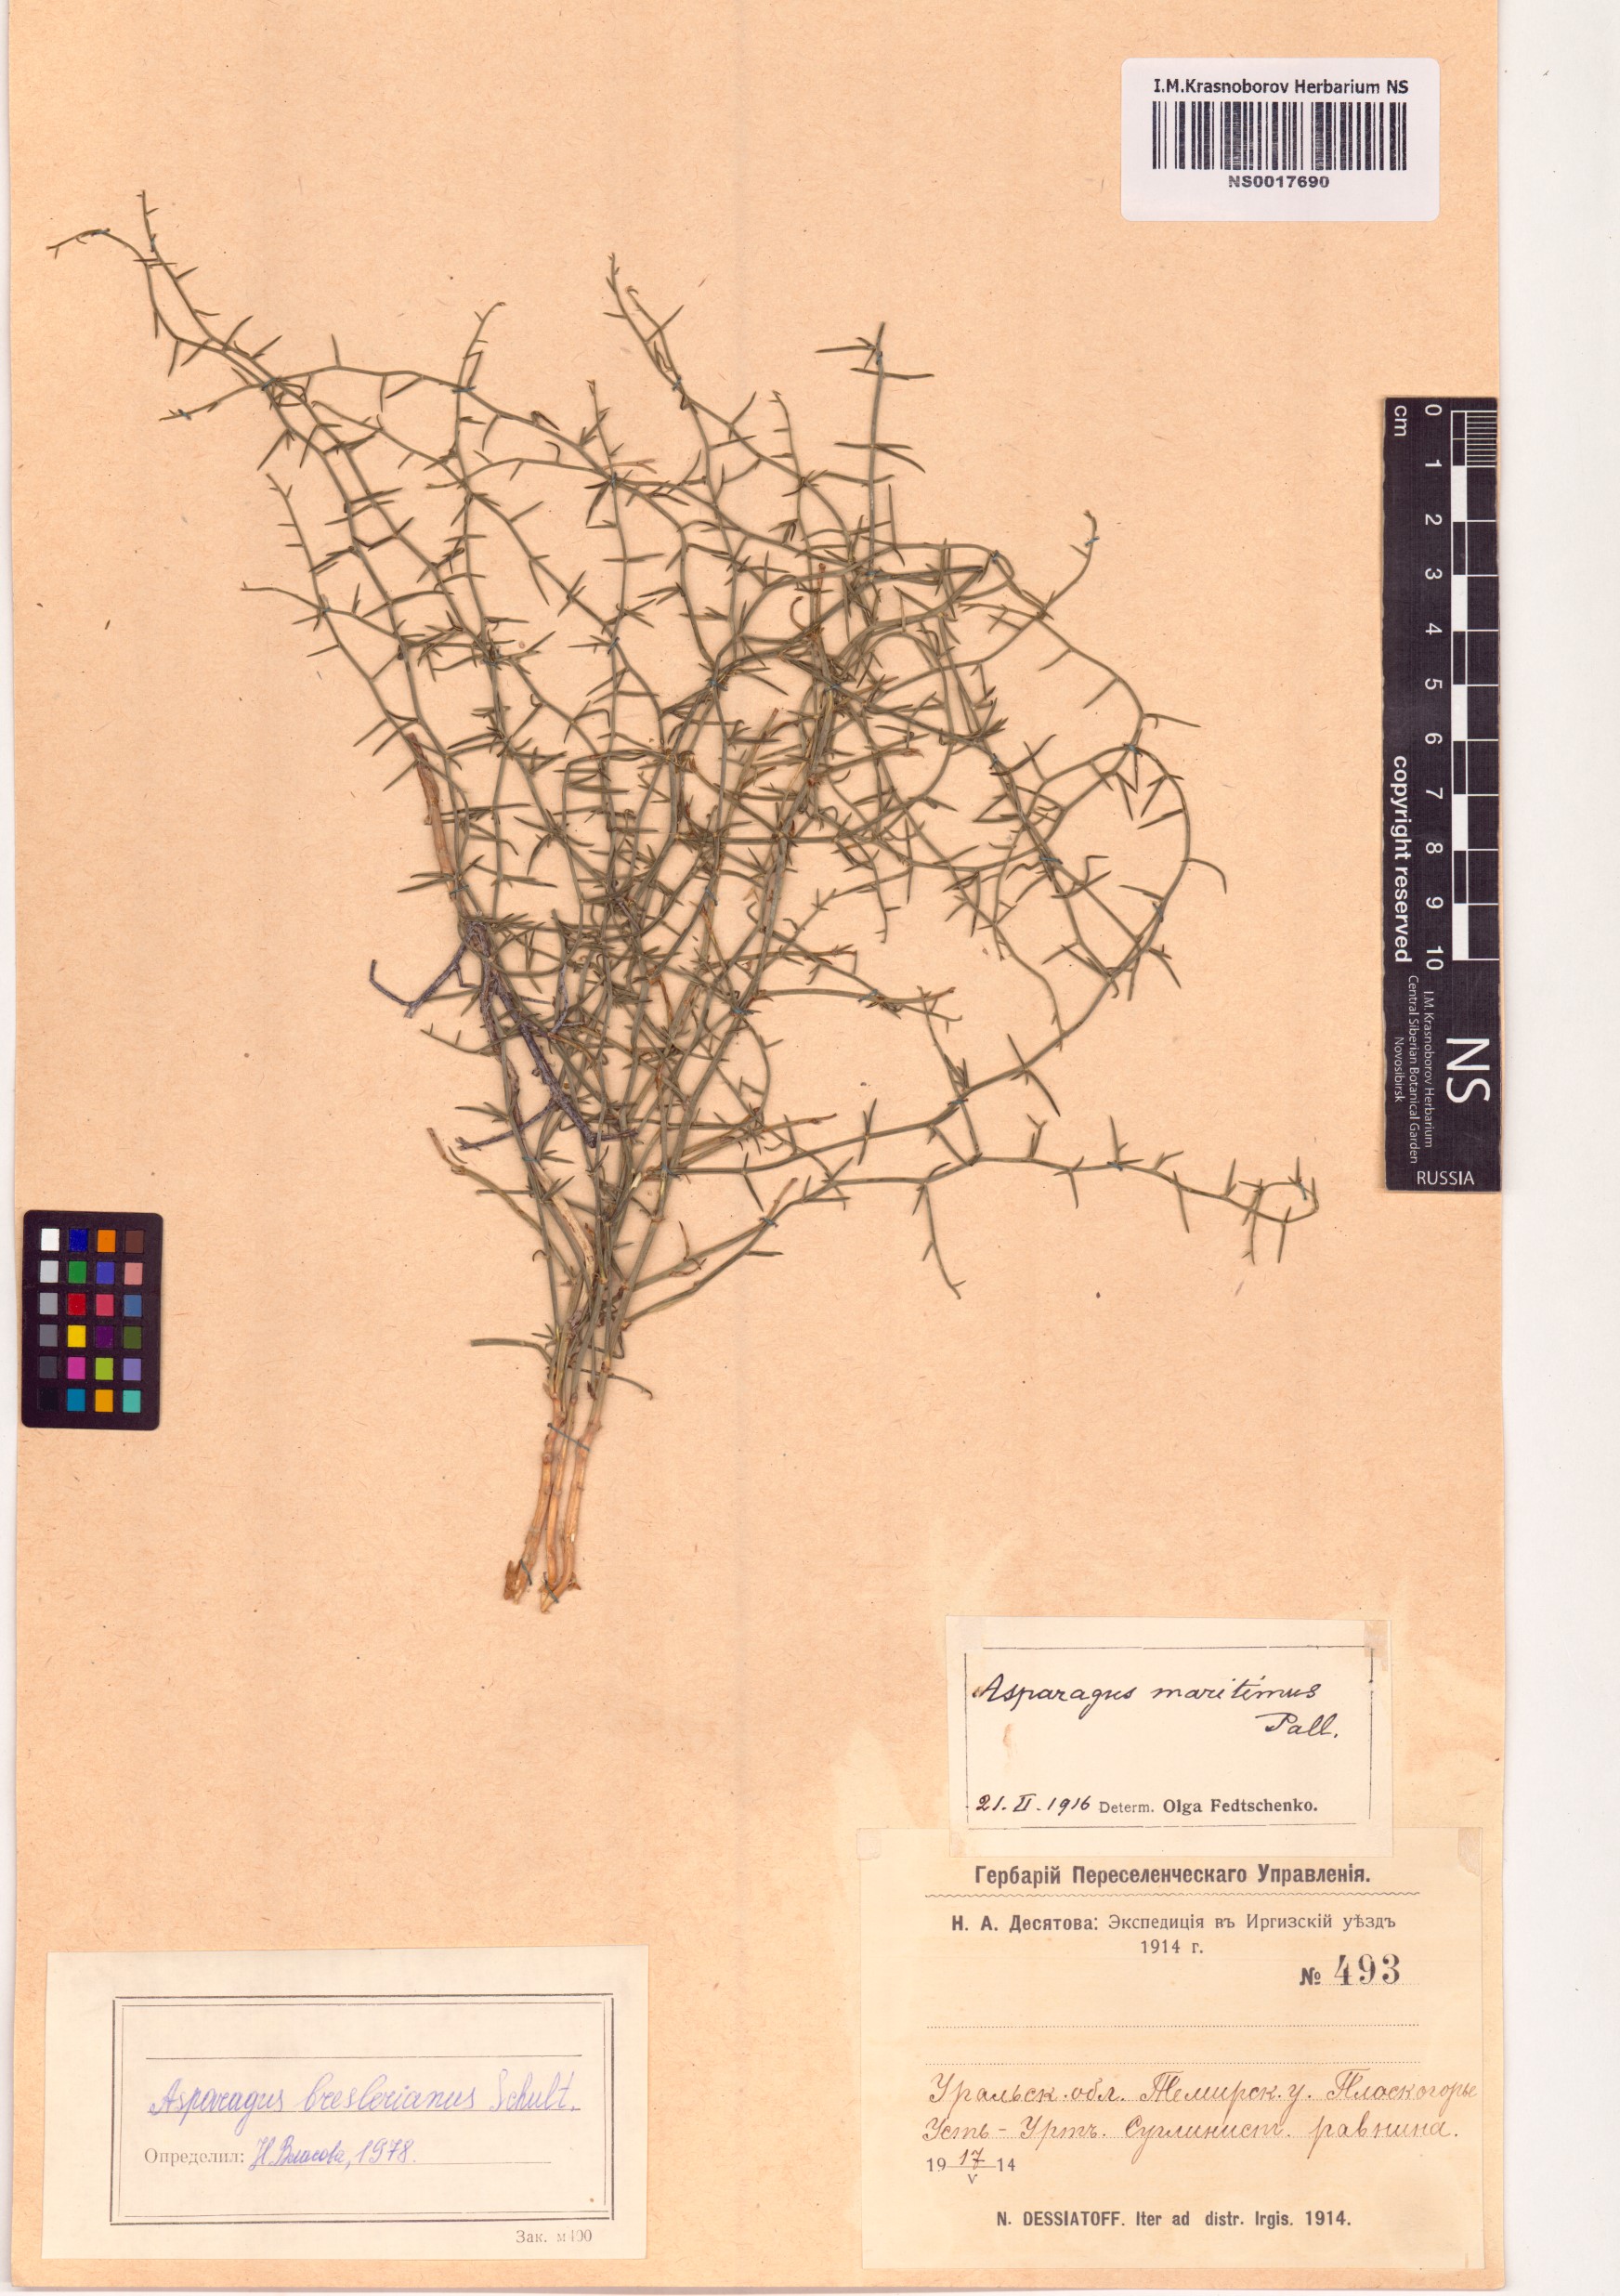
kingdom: Plantae
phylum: Tracheophyta
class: Liliopsida
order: Asparagales
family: Asparagaceae
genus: Asparagus
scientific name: Asparagus breslerianus
